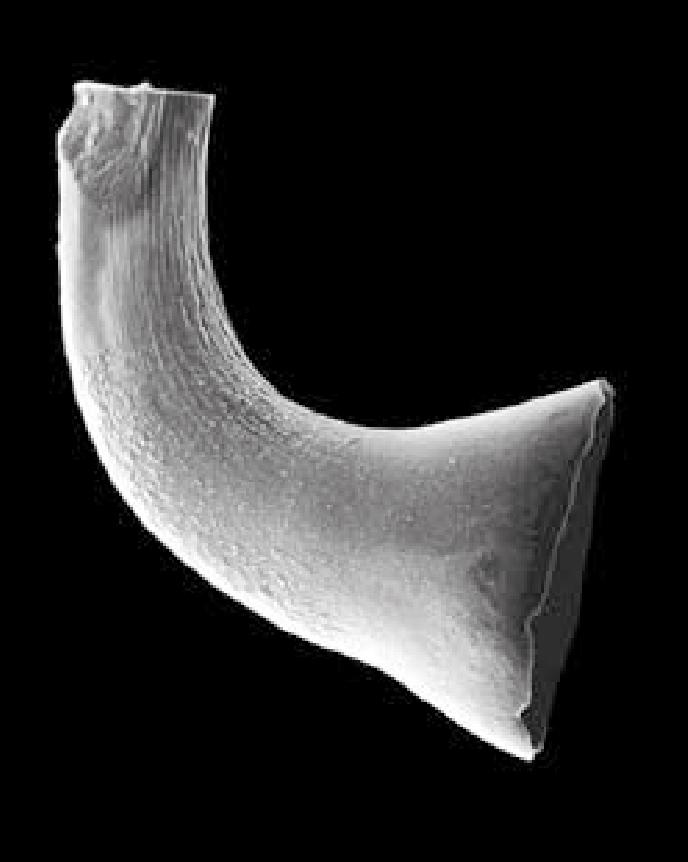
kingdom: Animalia
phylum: Chordata
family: Cornuodontidae
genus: Cornuodus
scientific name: Cornuodus Drepanodus longibasis
